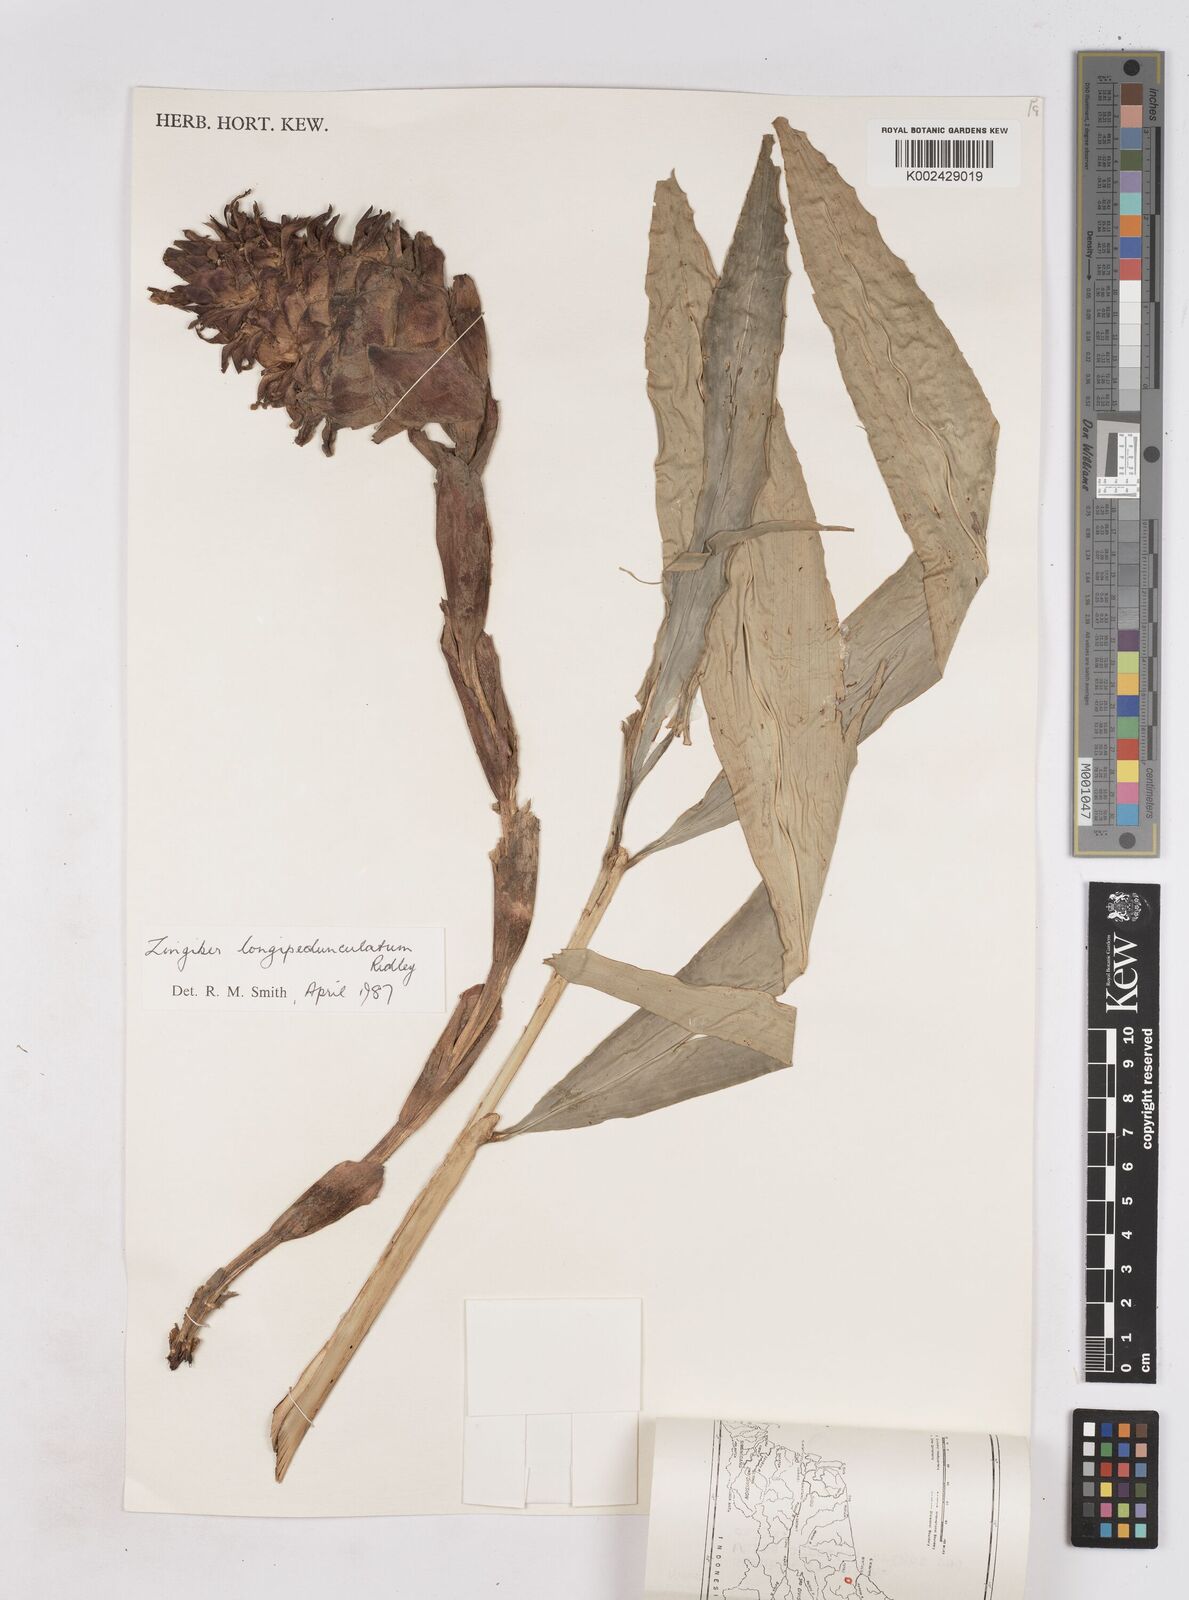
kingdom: Plantae
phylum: Tracheophyta
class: Liliopsida
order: Zingiberales
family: Zingiberaceae
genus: Zingiber
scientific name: Zingiber longipedunculatum
